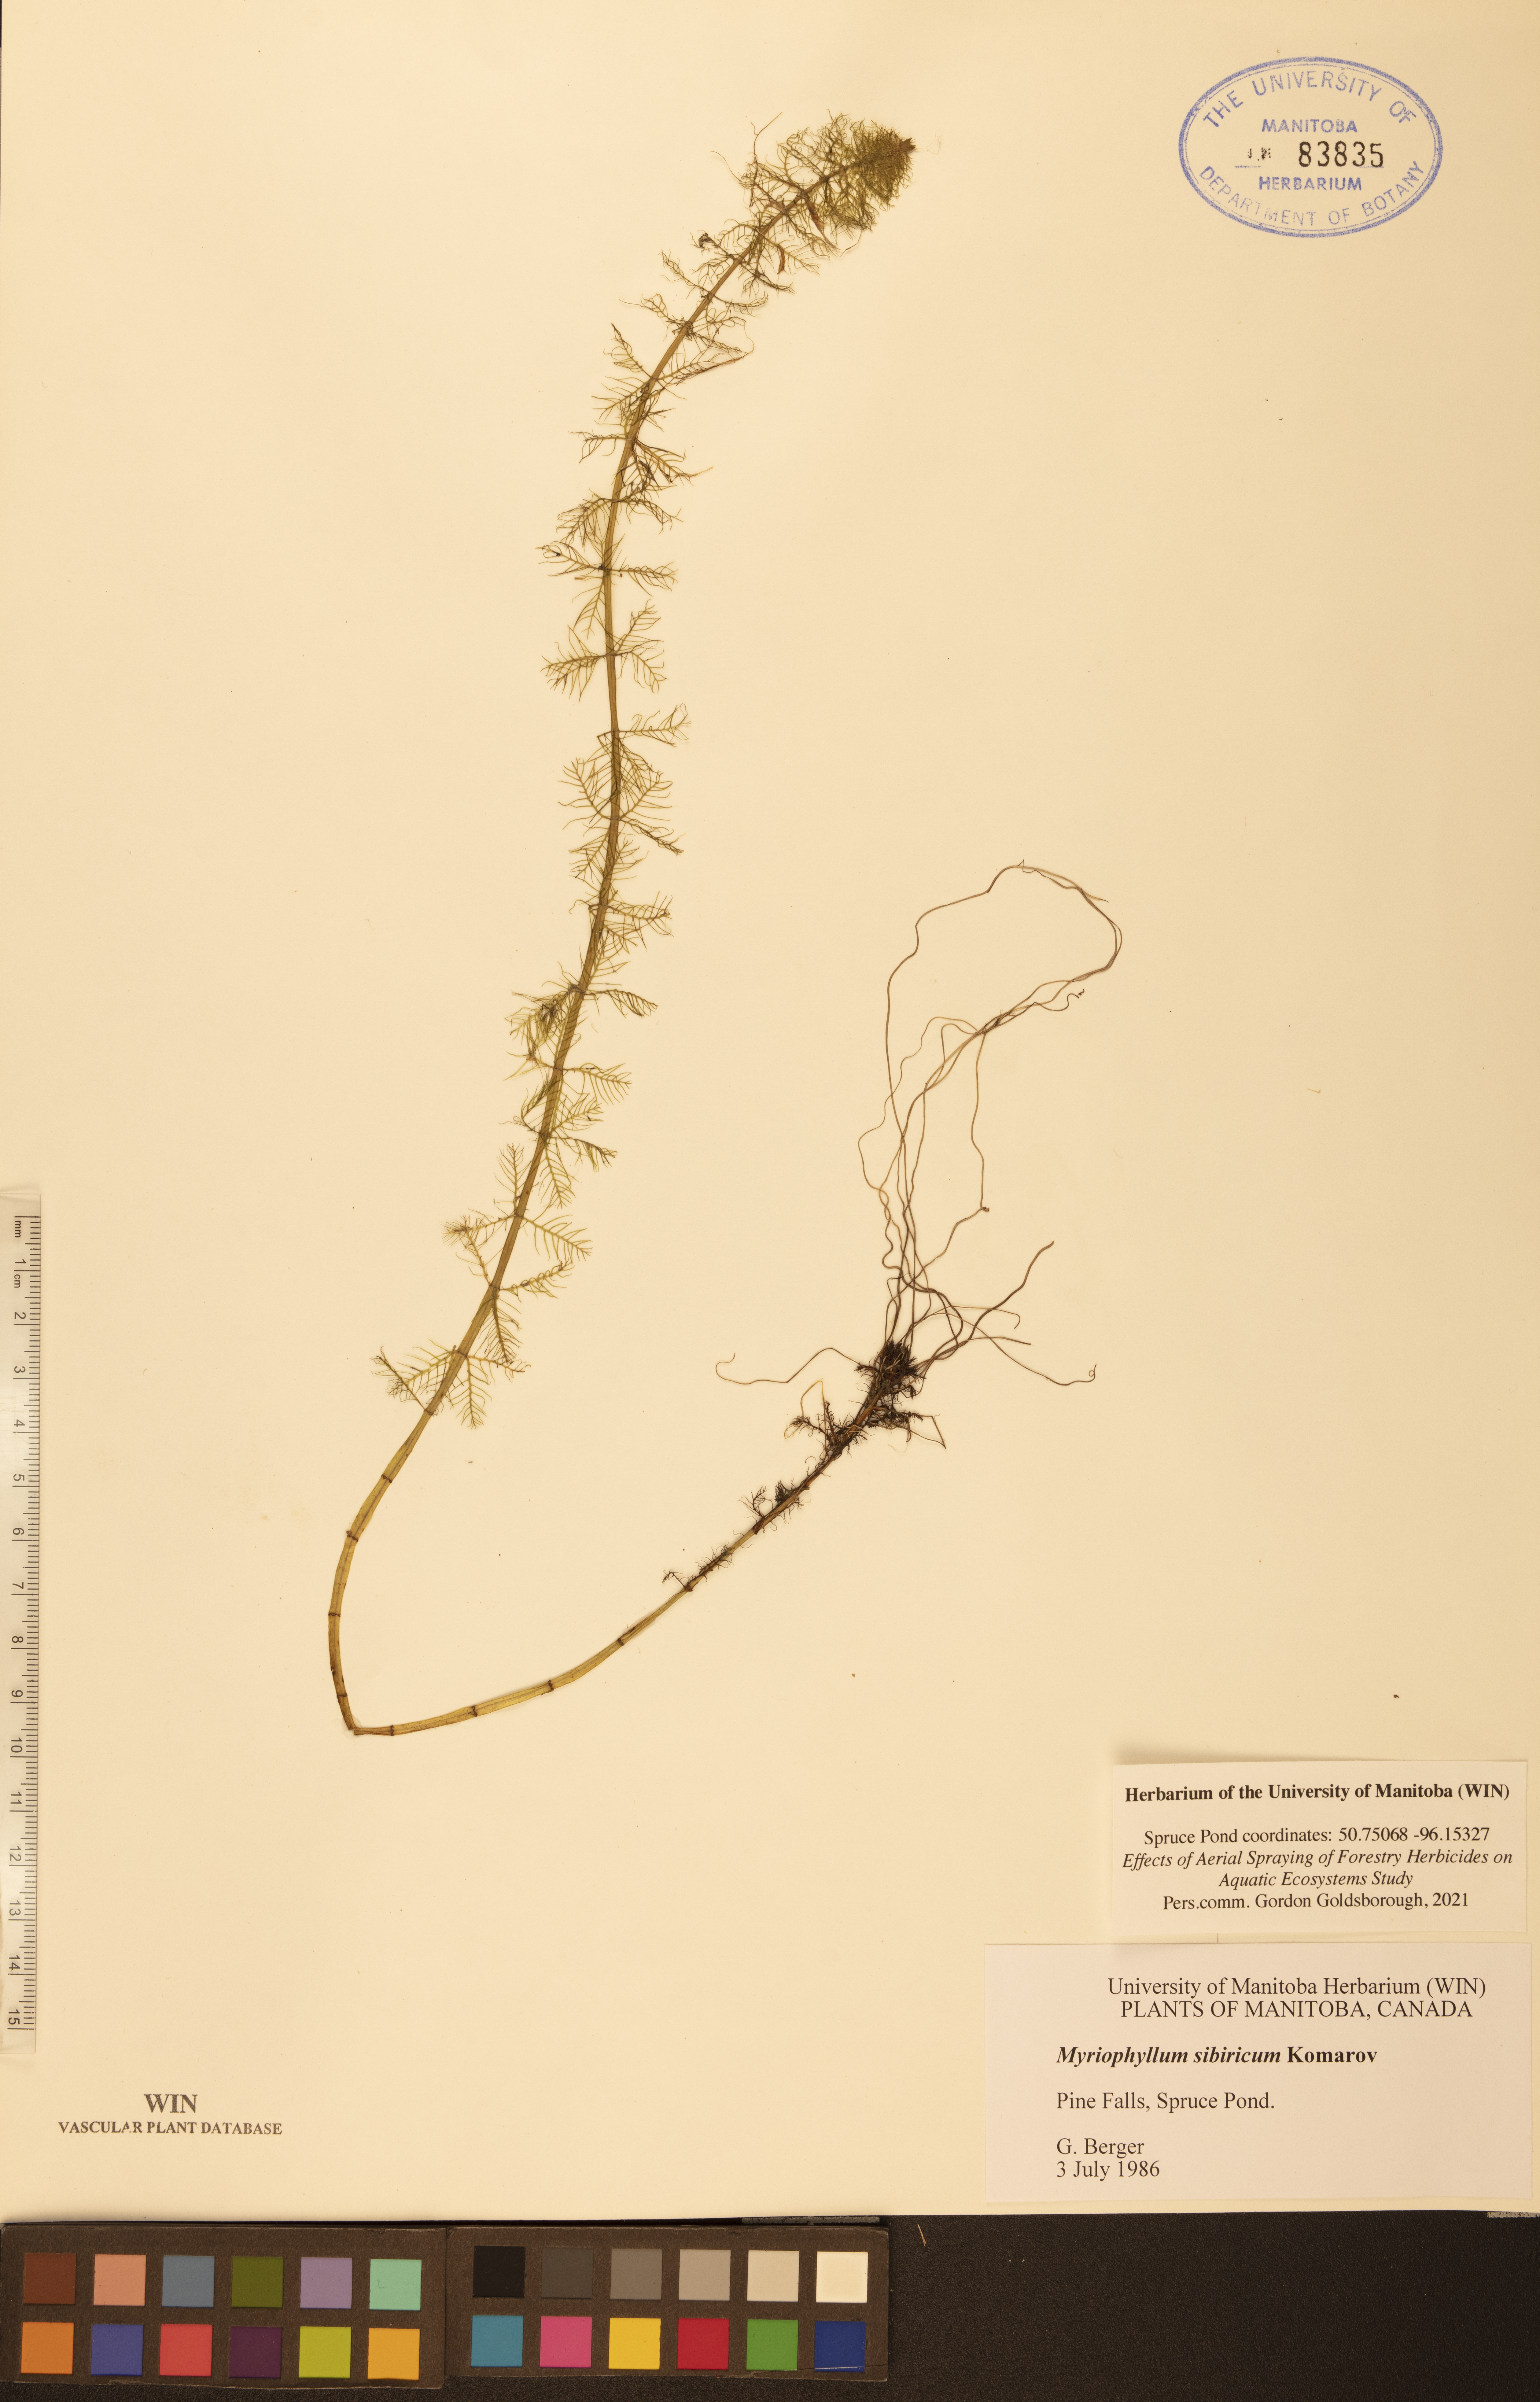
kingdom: Plantae
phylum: Tracheophyta
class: Magnoliopsida
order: Saxifragales
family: Haloragaceae
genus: Myriophyllum
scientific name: Myriophyllum sibiricum
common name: Siberian water-milfoil
